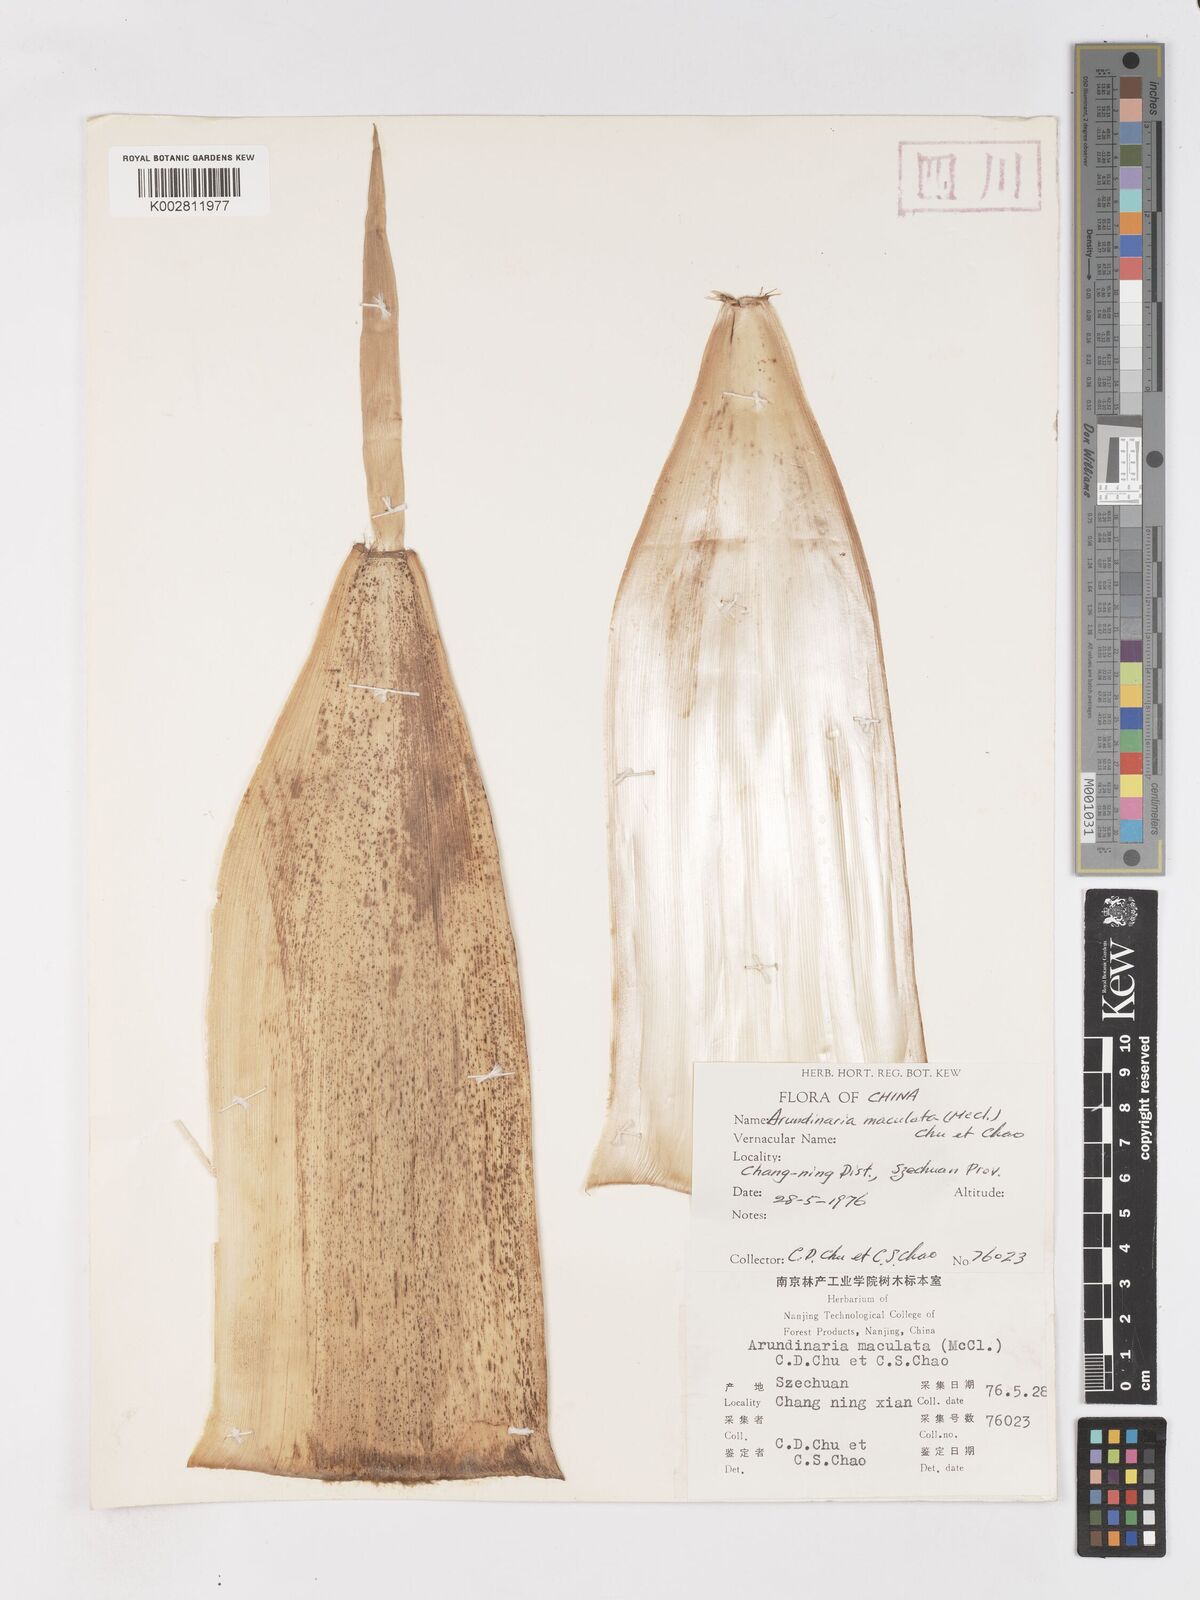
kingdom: Plantae
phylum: Tracheophyta
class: Liliopsida
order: Poales
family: Poaceae
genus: Oligostachyum
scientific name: Oligostachyum scabriflorum
